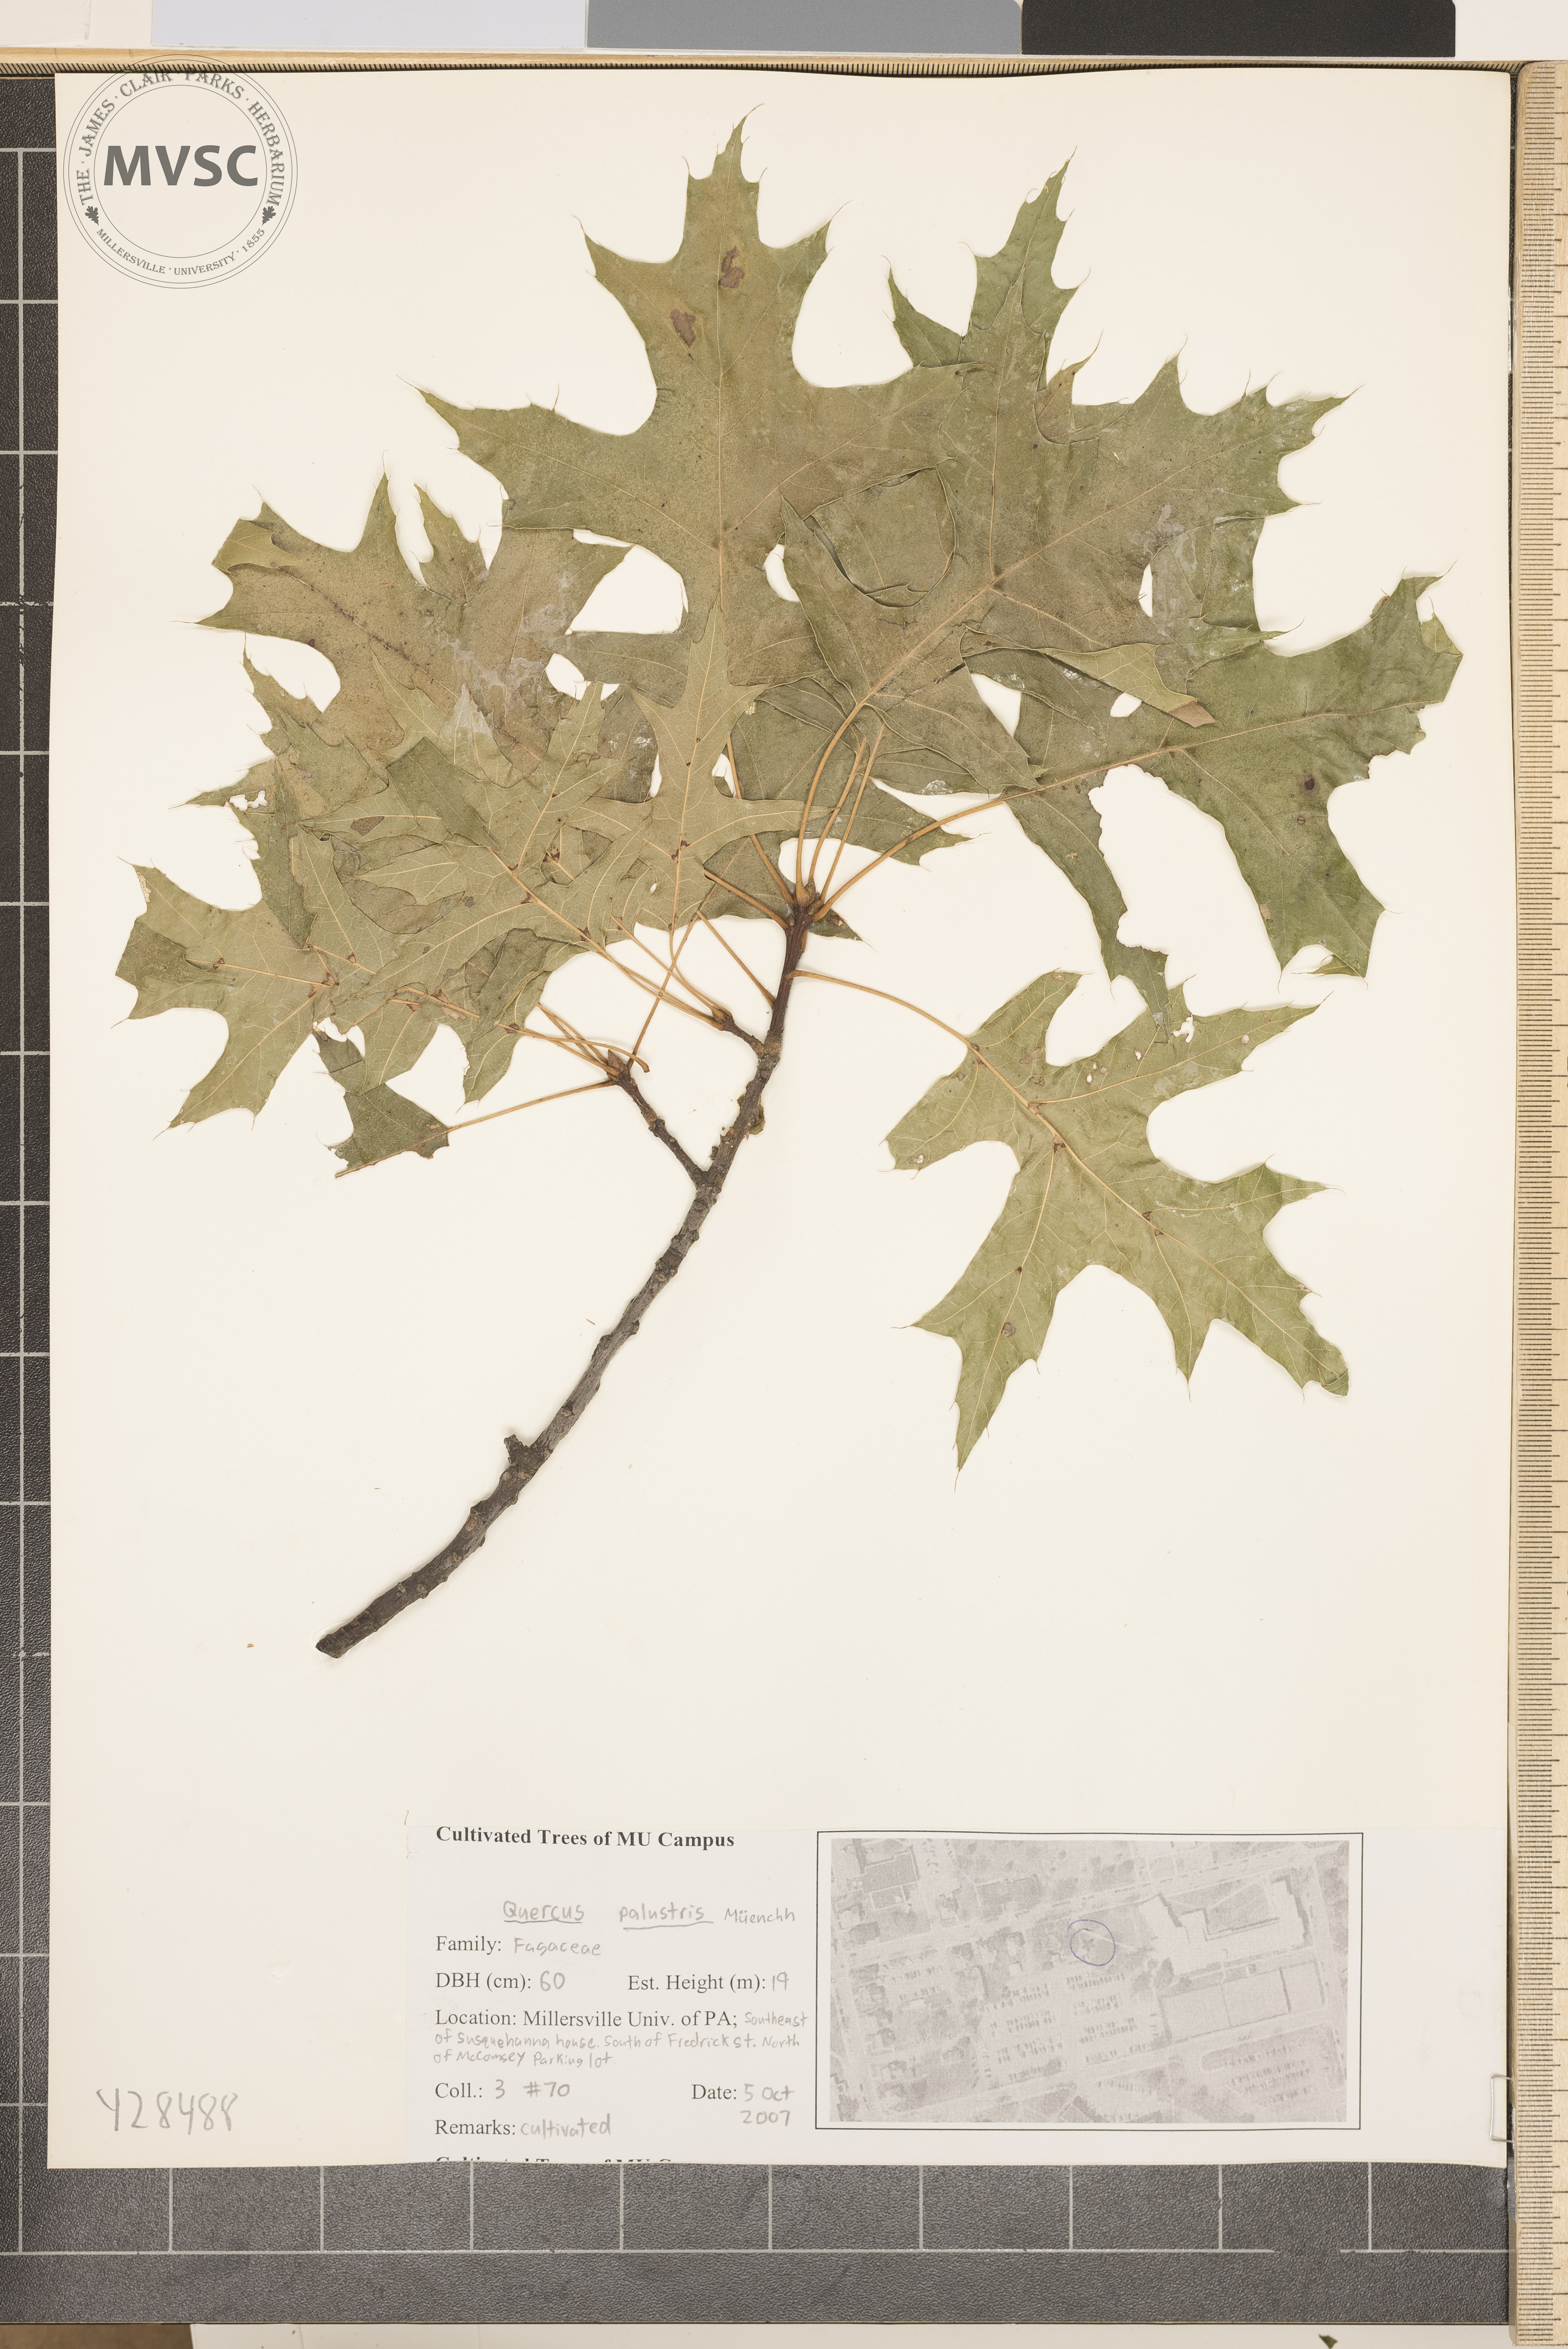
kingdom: Plantae
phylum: Tracheophyta
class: Magnoliopsida
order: Fagales
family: Fagaceae
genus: Quercus
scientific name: Quercus palustris
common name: Pin Oak
